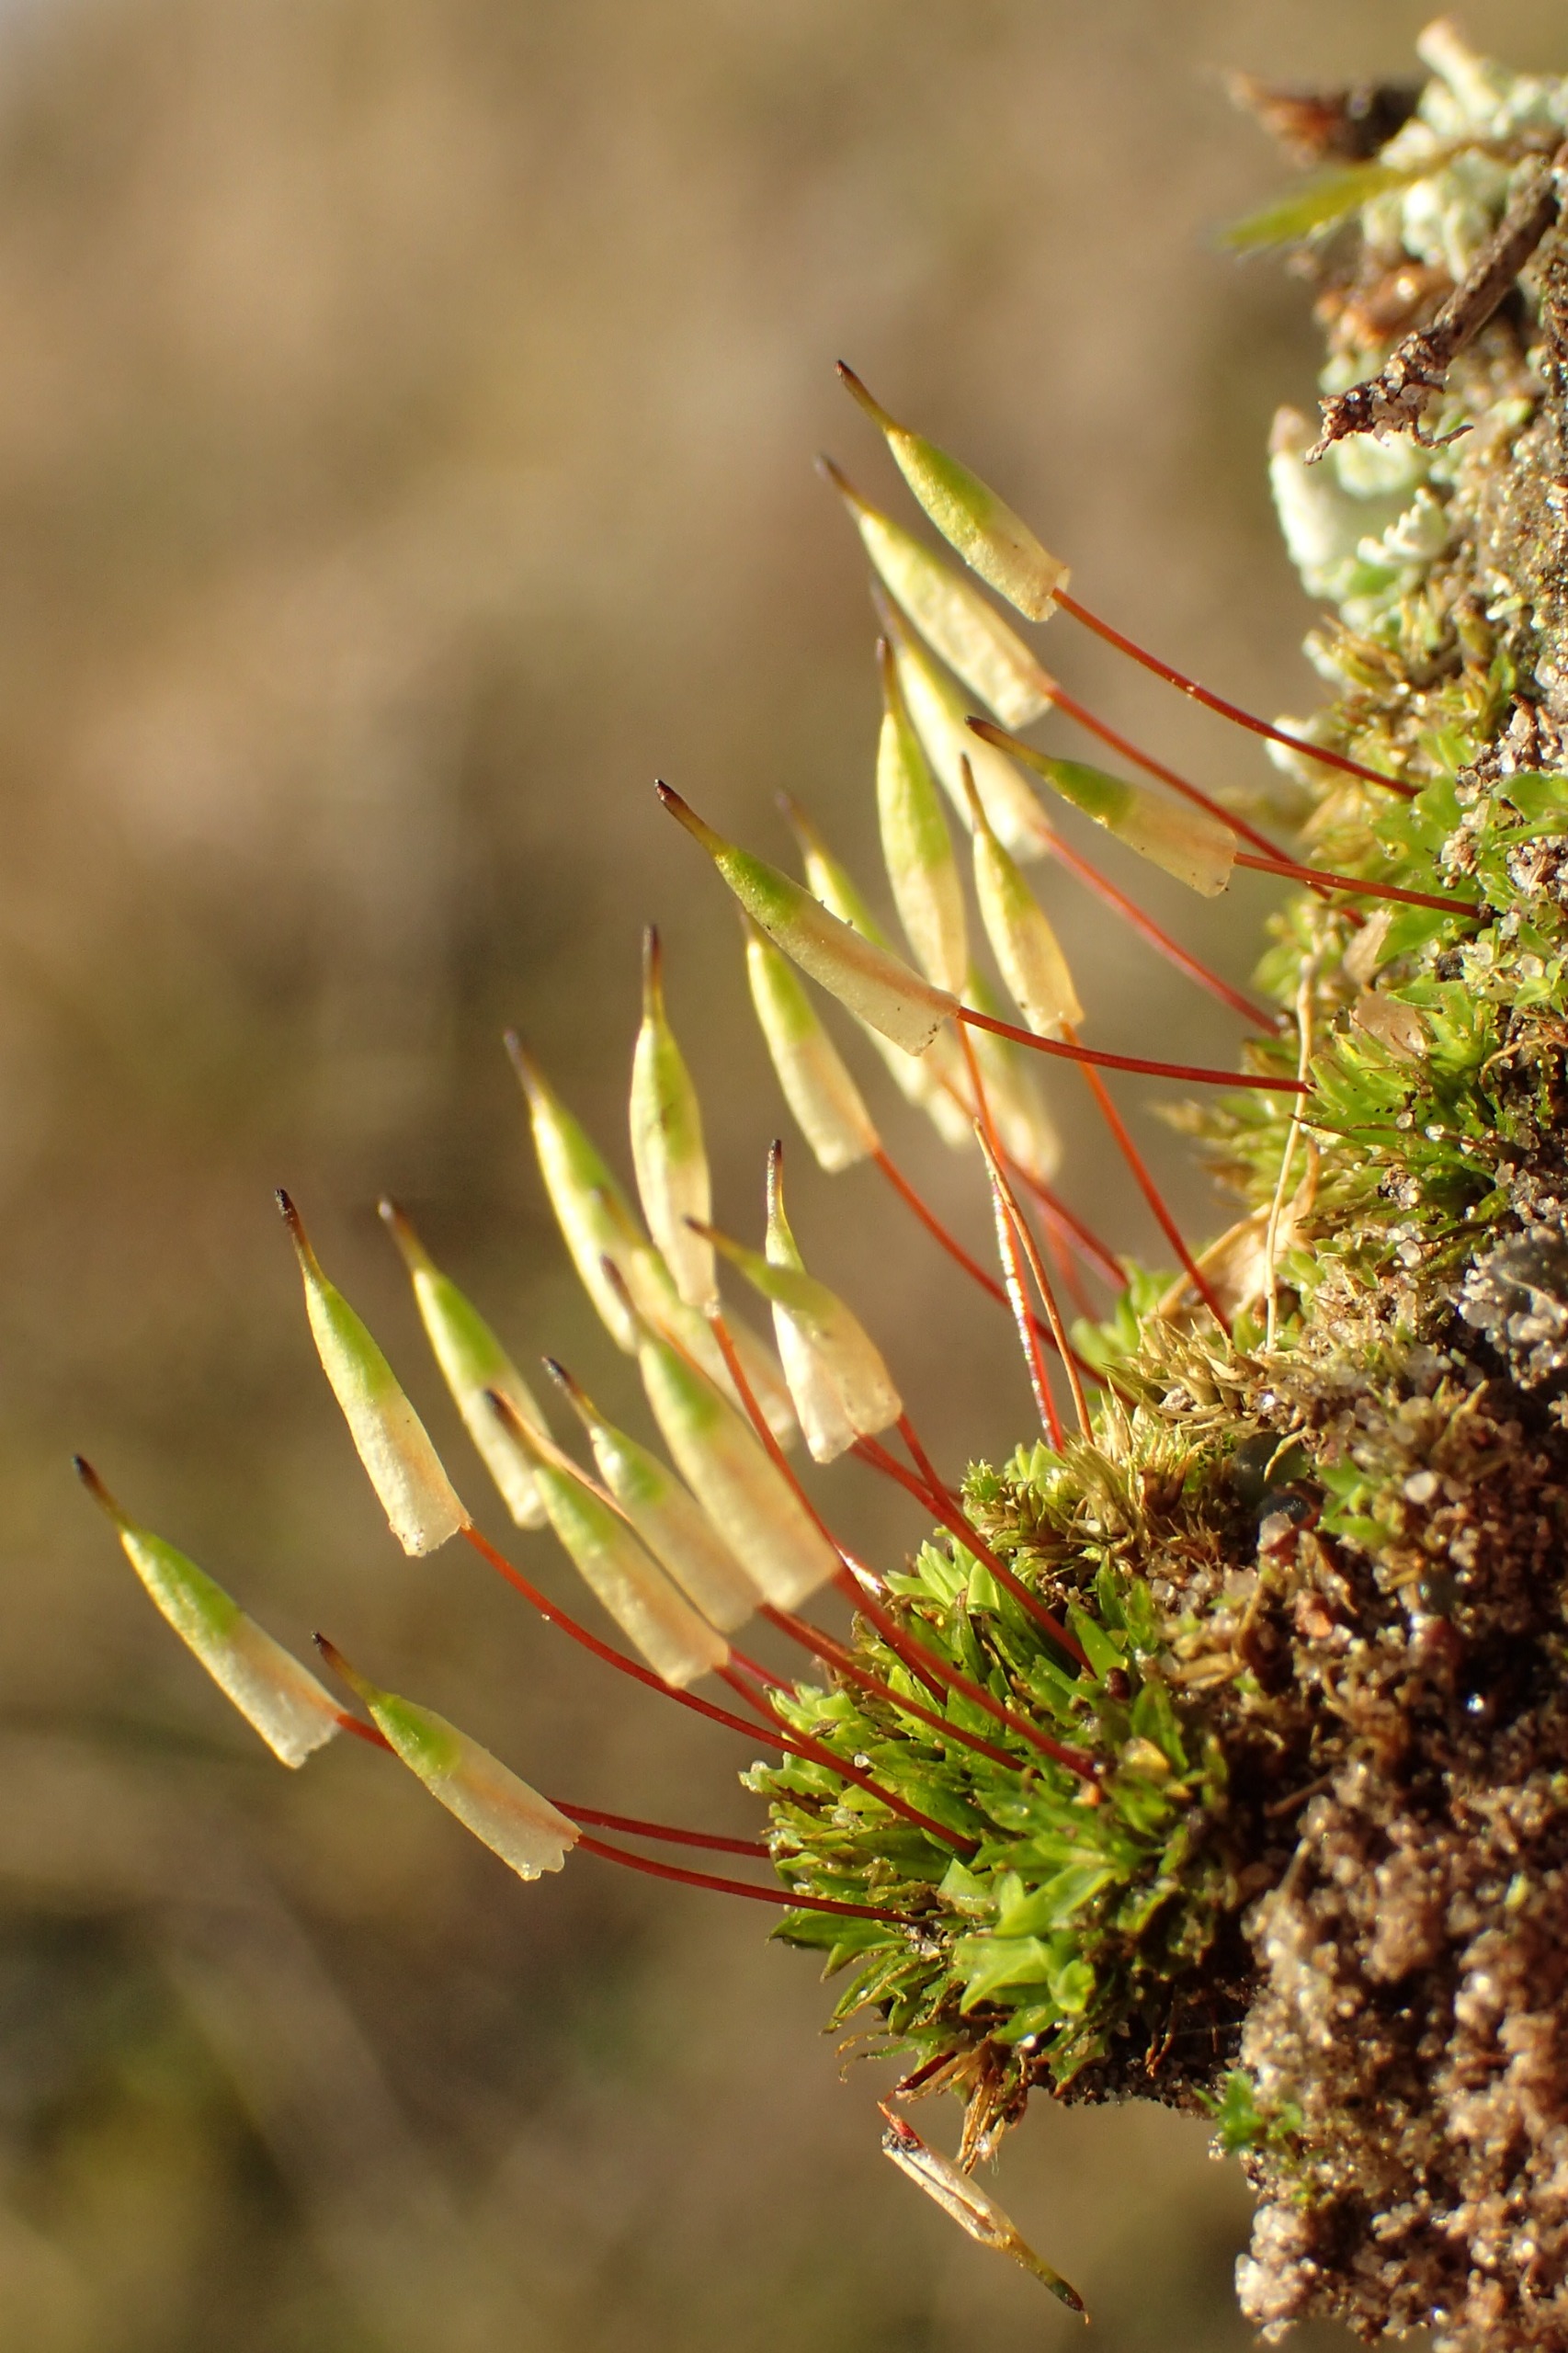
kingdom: Plantae
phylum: Bryophyta
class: Bryopsida
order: Encalyptales
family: Encalyptaceae
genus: Encalypta
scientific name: Encalypta vulgaris
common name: Almindelig klokkehætte
